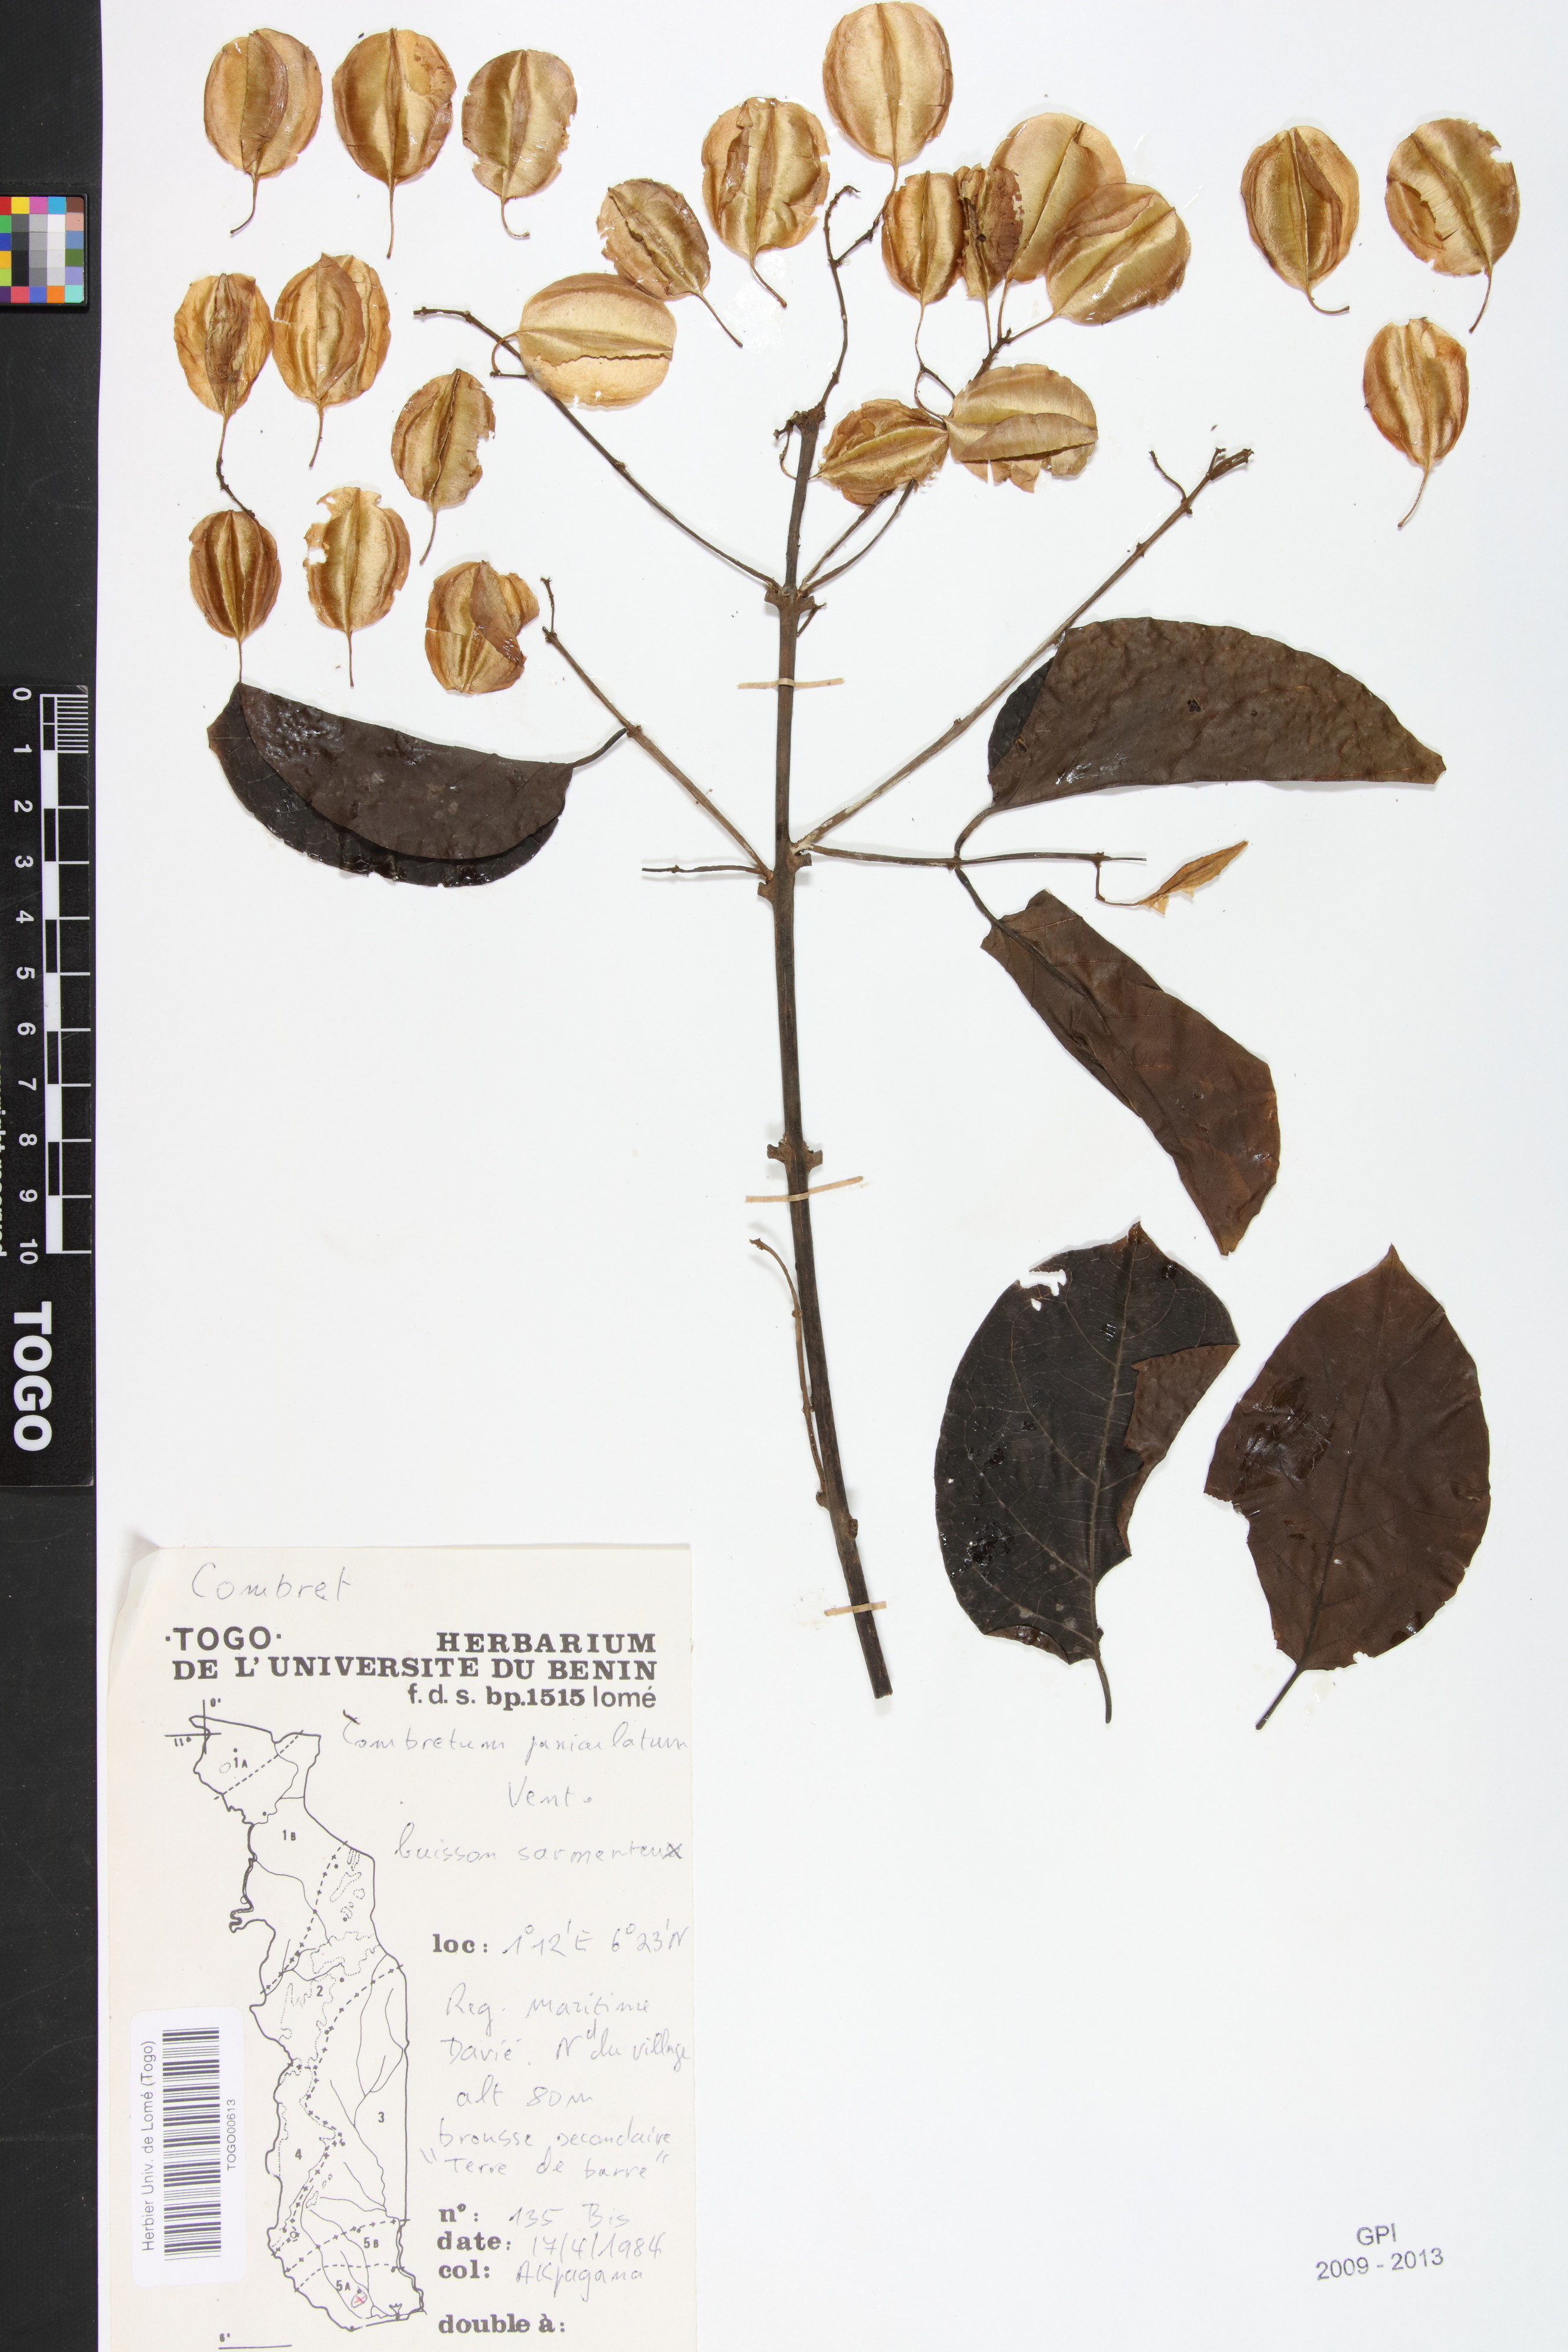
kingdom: Plantae
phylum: Tracheophyta
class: Magnoliopsida
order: Myrtales
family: Combretaceae
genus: Combretum
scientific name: Combretum paniculatum
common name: Fire vine
